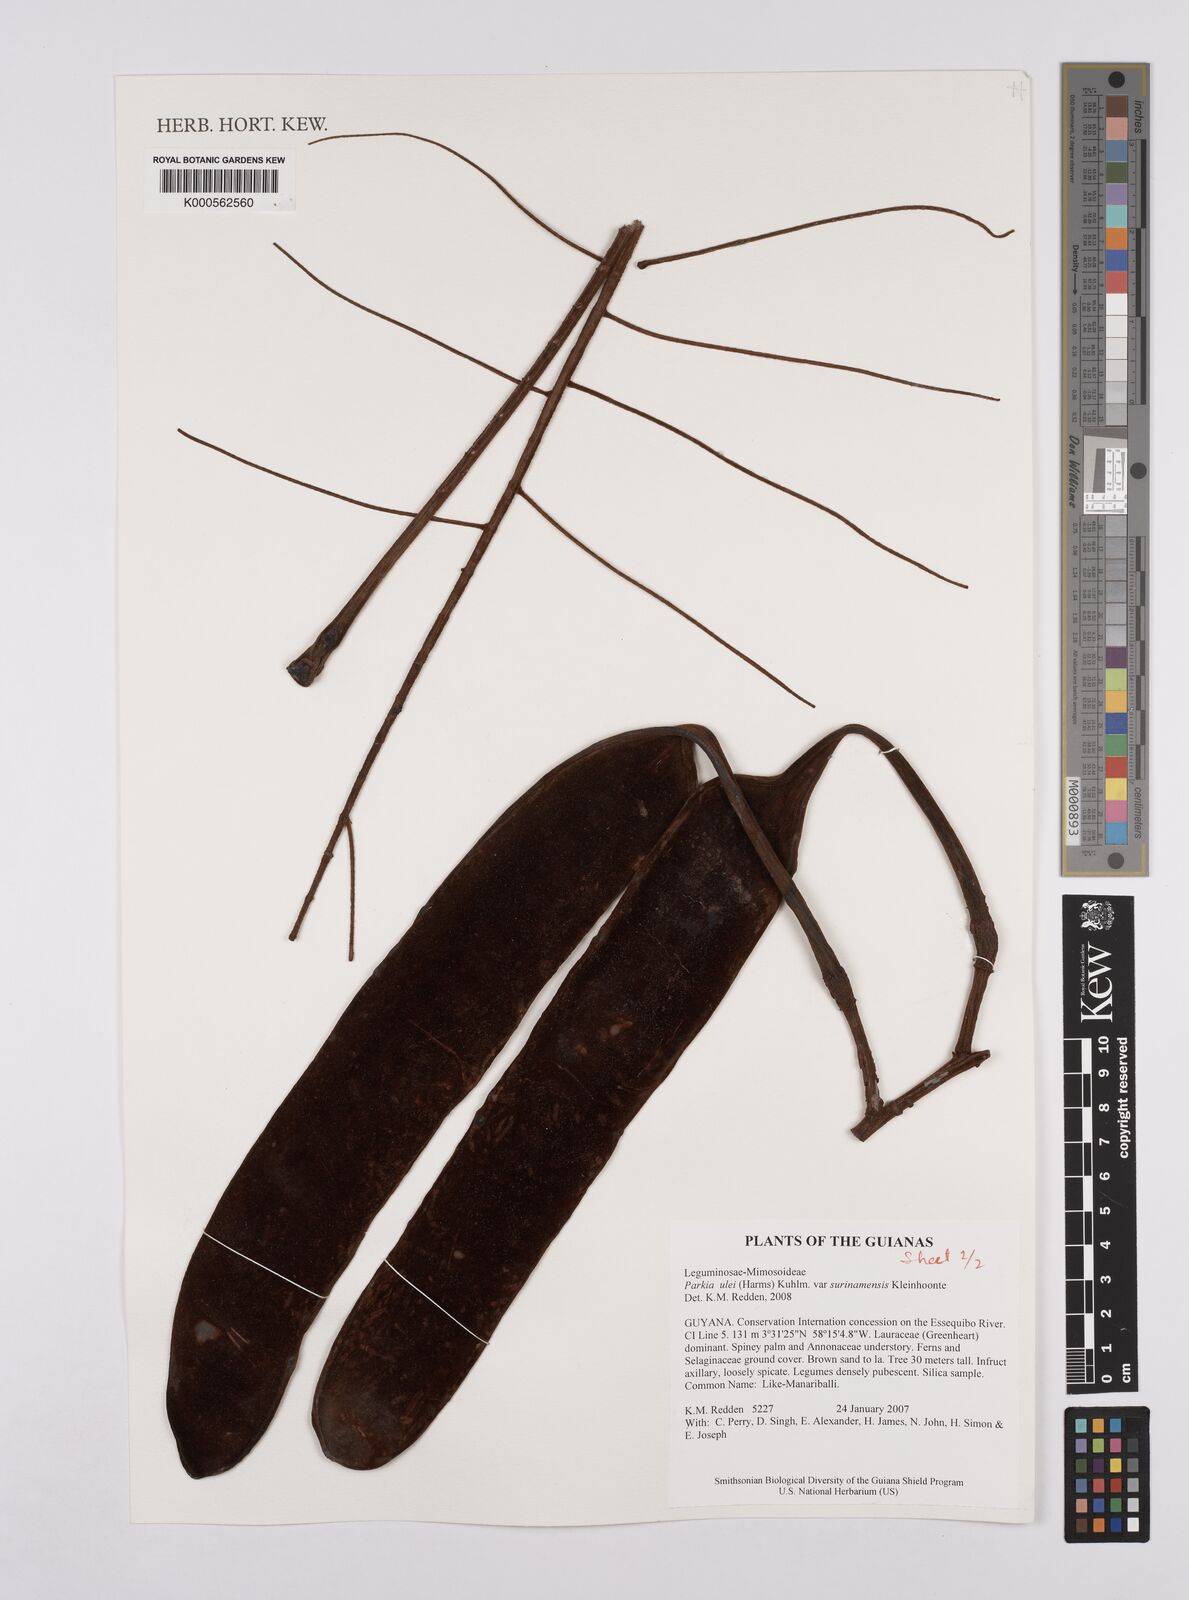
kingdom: Plantae
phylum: Tracheophyta
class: Magnoliopsida
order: Fabales
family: Fabaceae
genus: Parkia
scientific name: Parkia ulei
